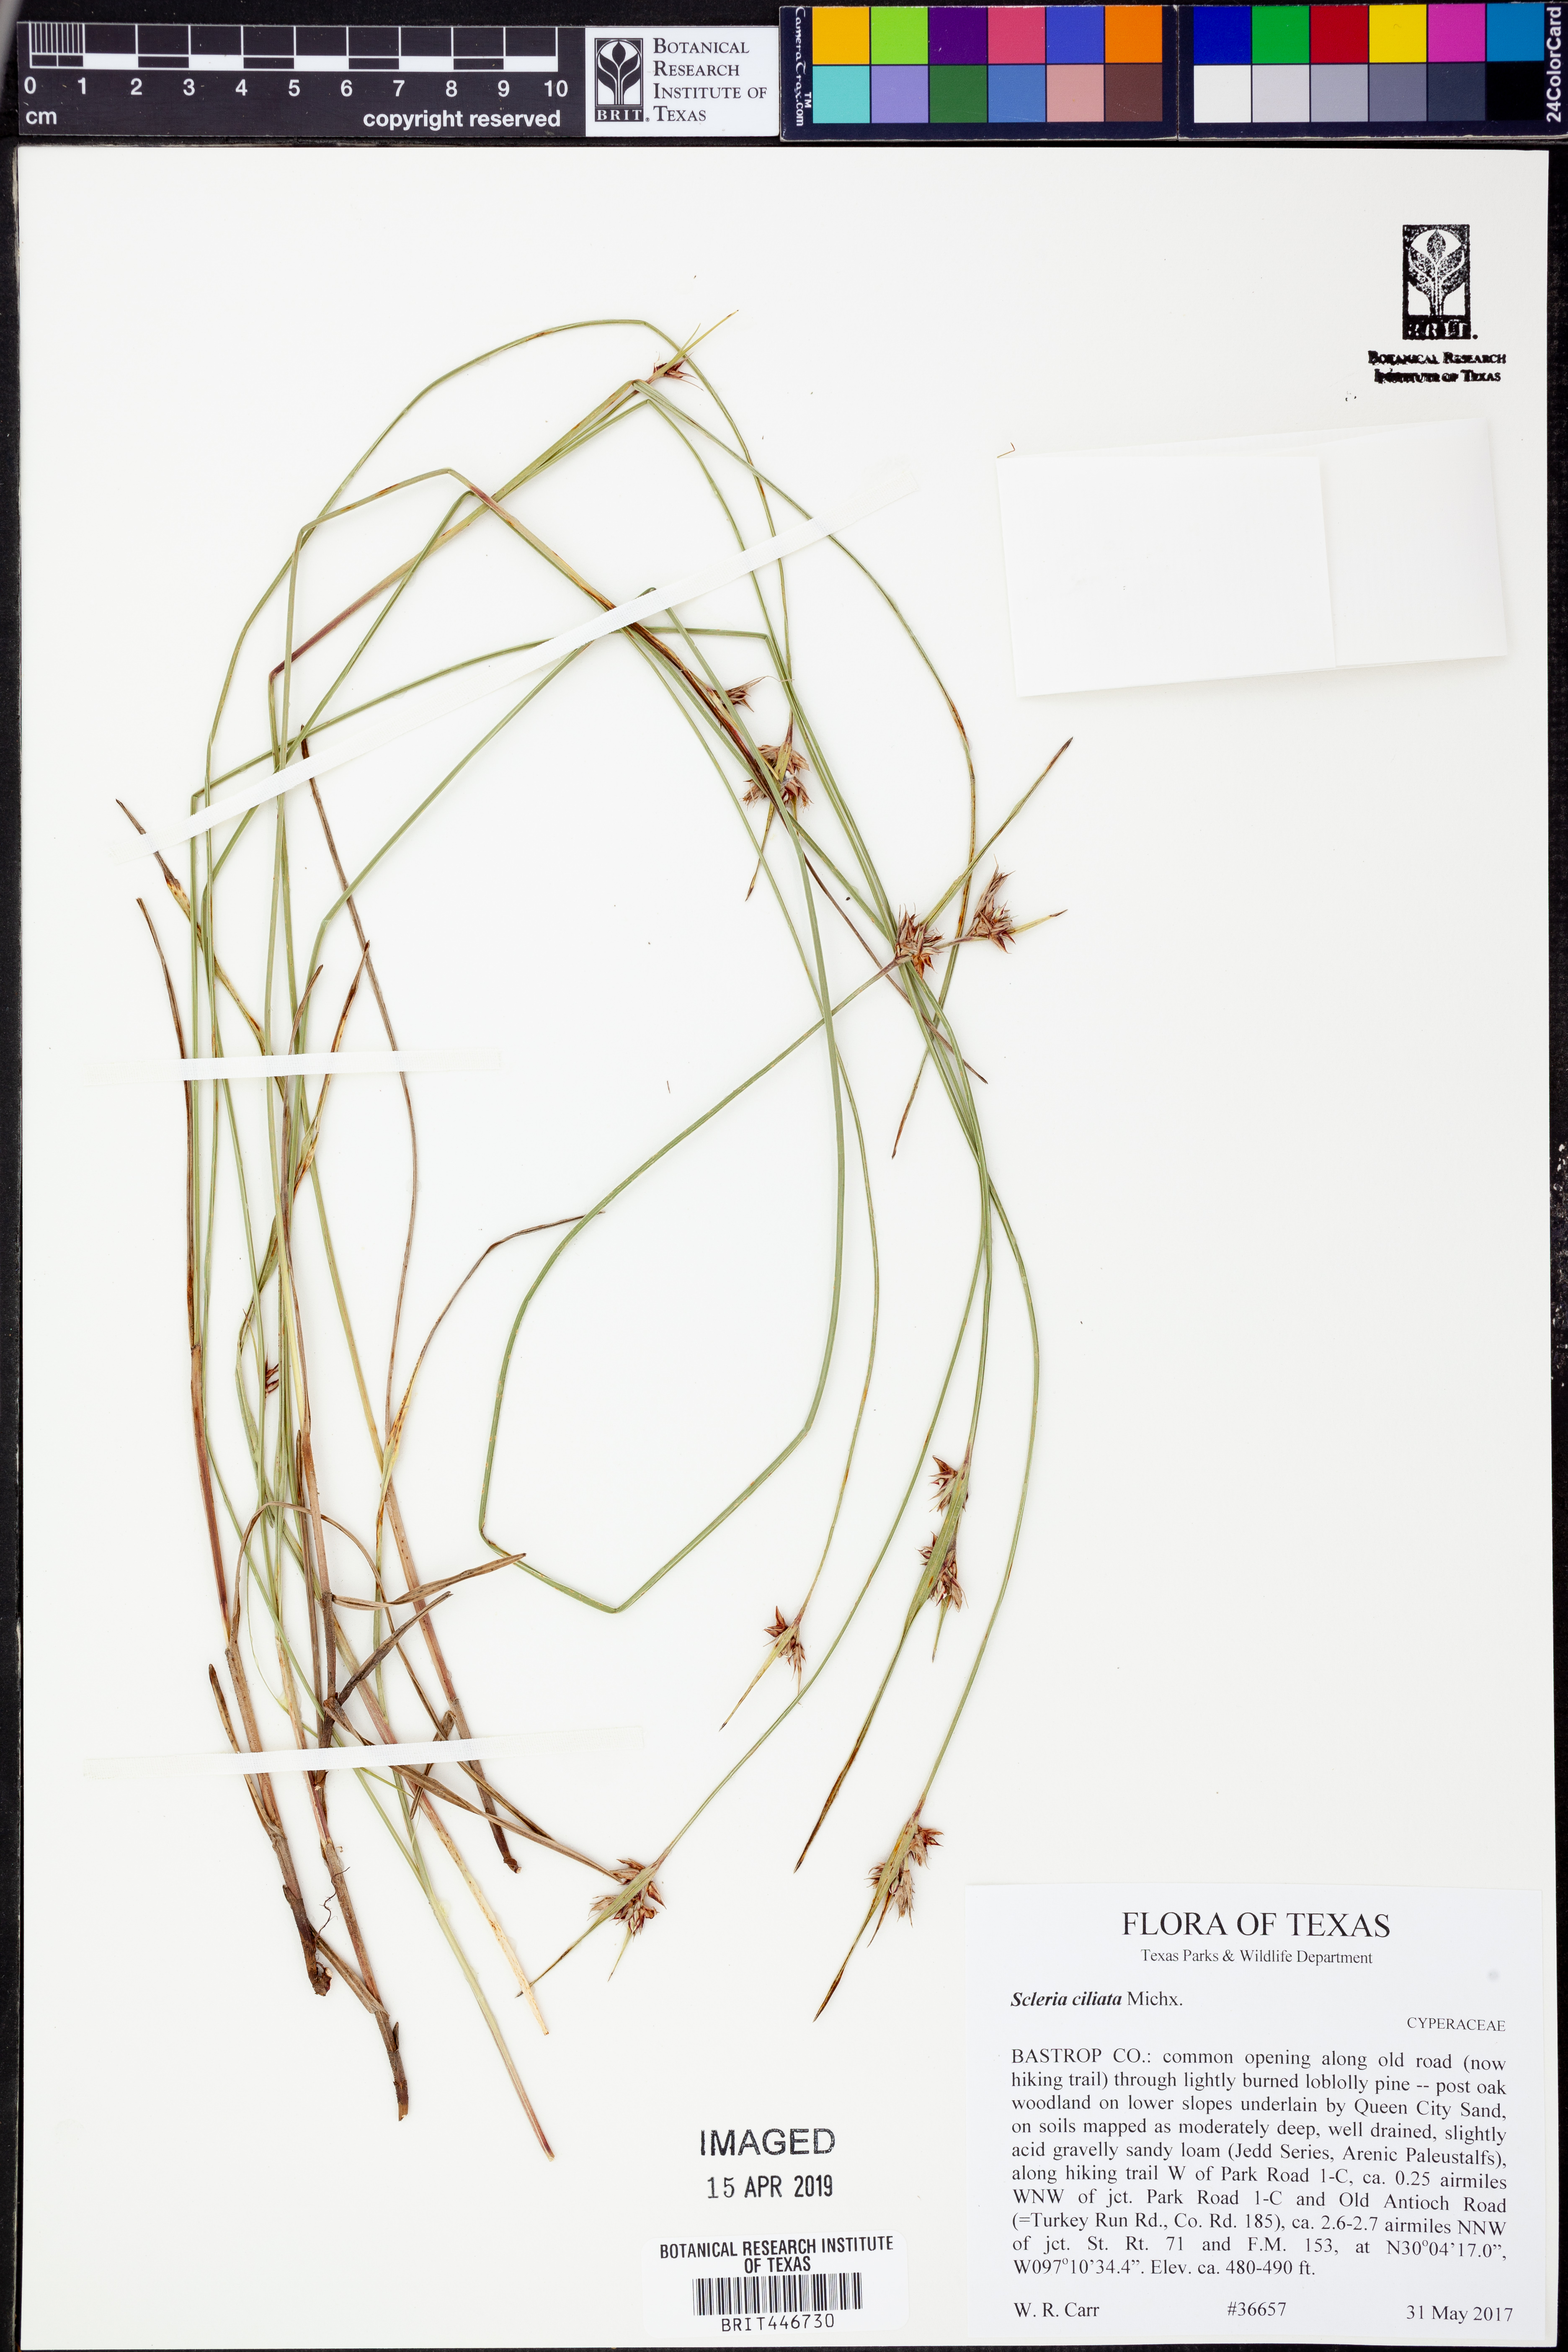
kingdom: Plantae
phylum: Tracheophyta
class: Liliopsida
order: Poales
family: Cyperaceae
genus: Scleria
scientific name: Scleria ciliata
